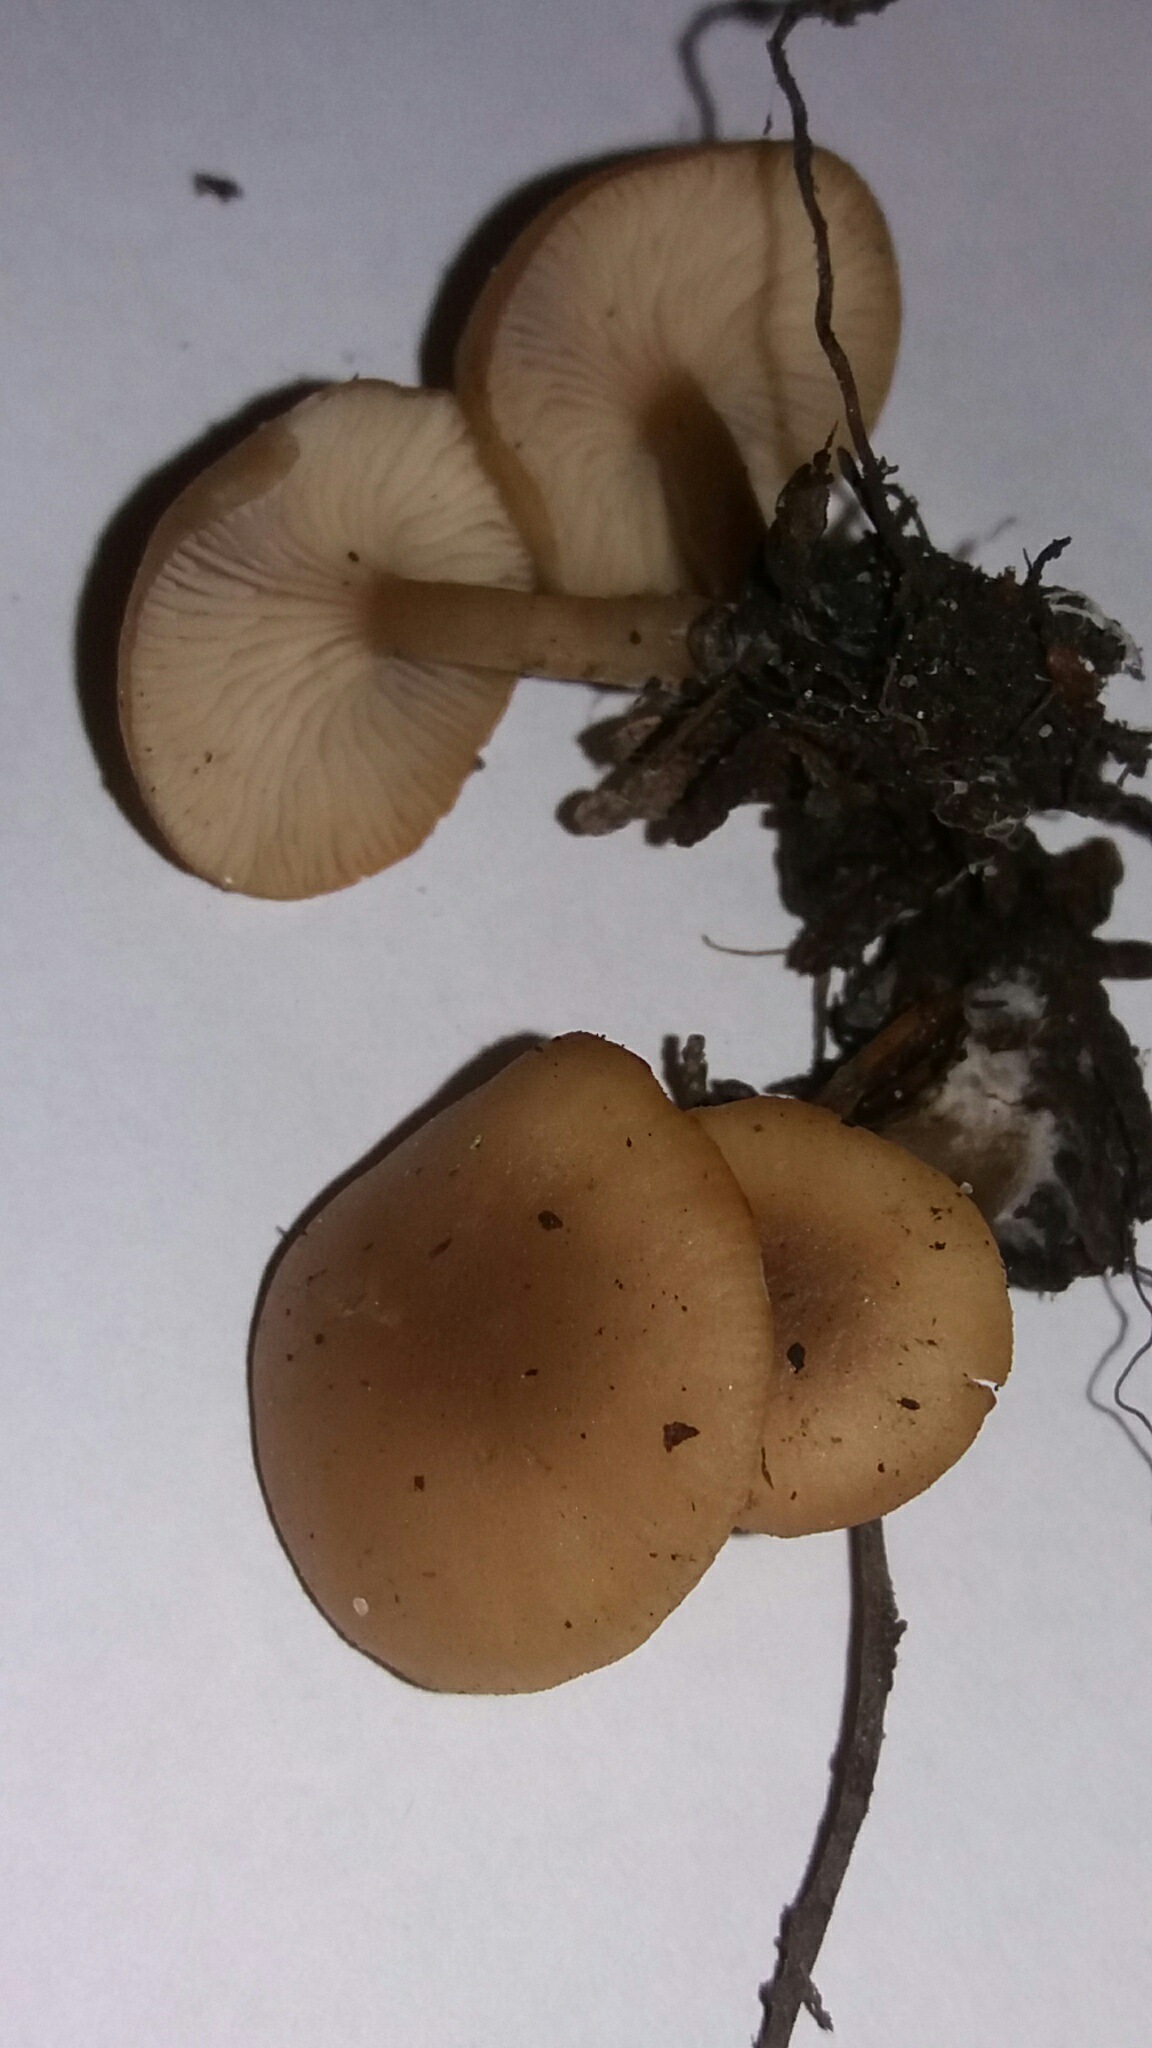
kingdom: Fungi
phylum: Basidiomycota
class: Agaricomycetes
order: Agaricales
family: Tricholomataceae
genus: Clitocybe
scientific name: Clitocybe fragrans
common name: vellugtende tragthat
